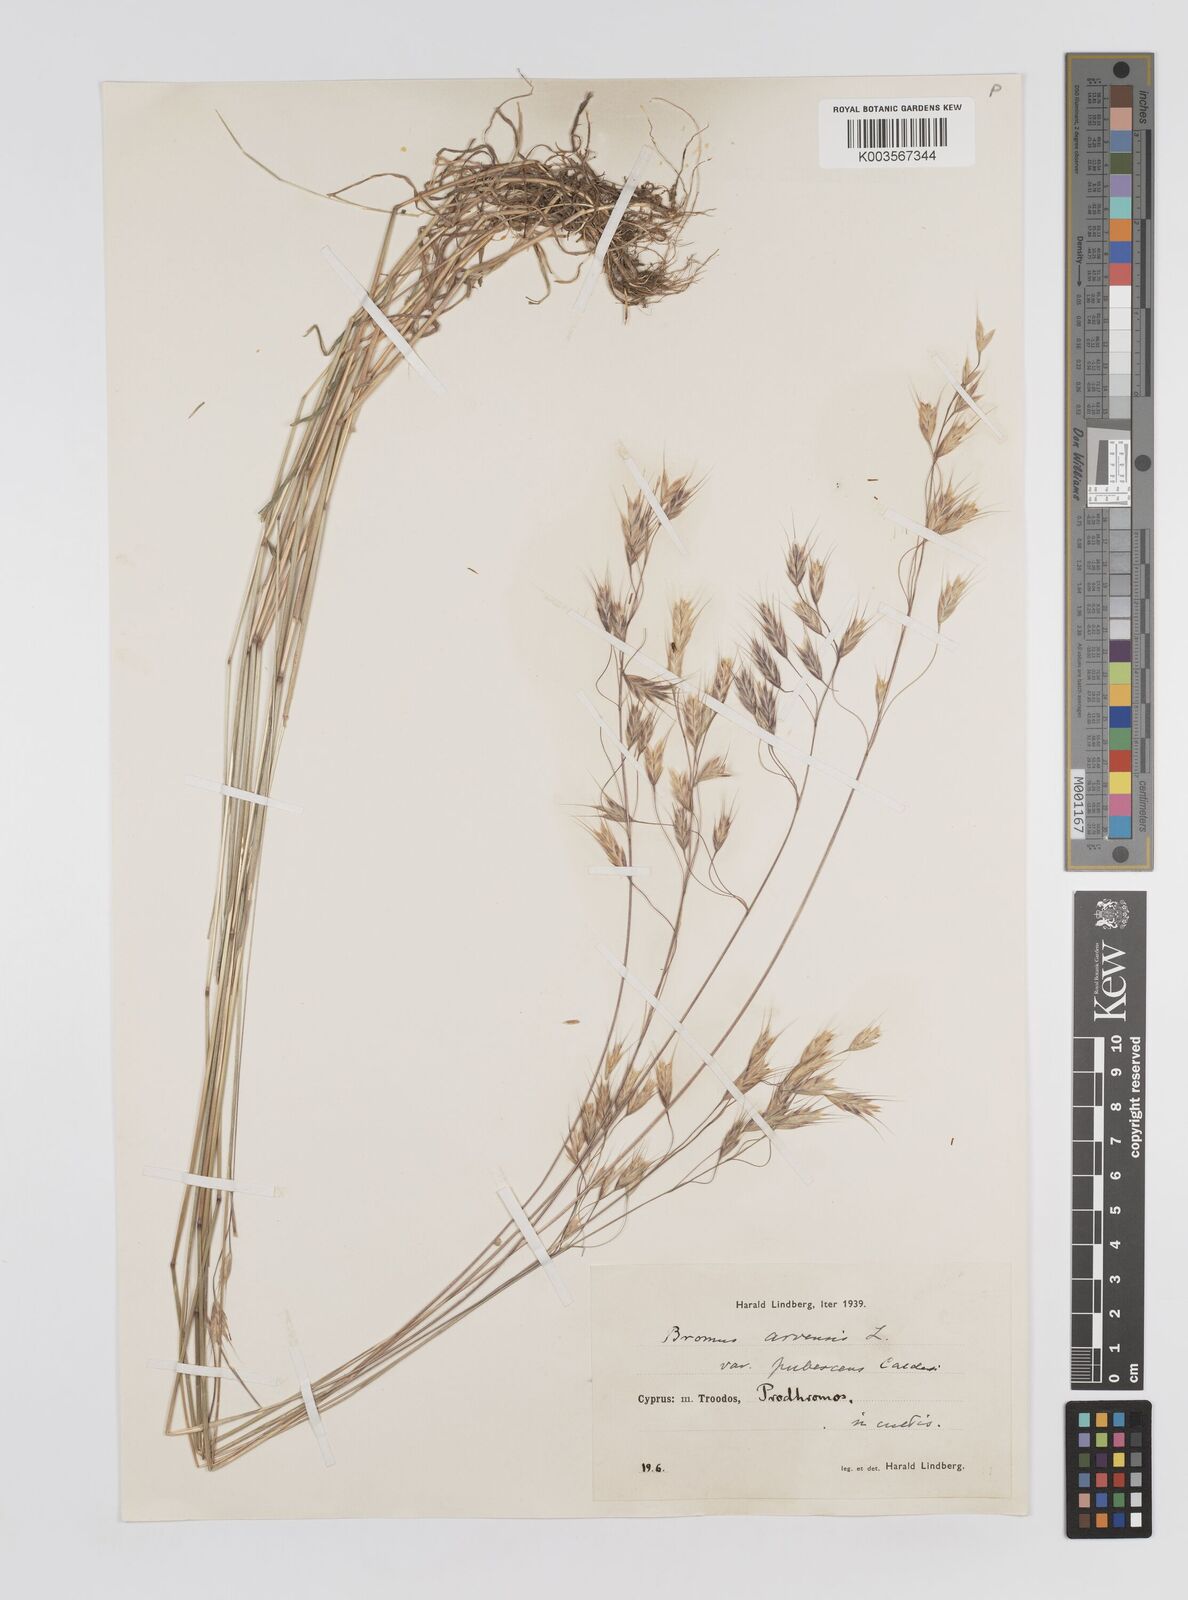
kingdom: Plantae
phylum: Tracheophyta
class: Liliopsida
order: Poales
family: Poaceae
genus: Bromus
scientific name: Bromus arvensis
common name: Field brome
